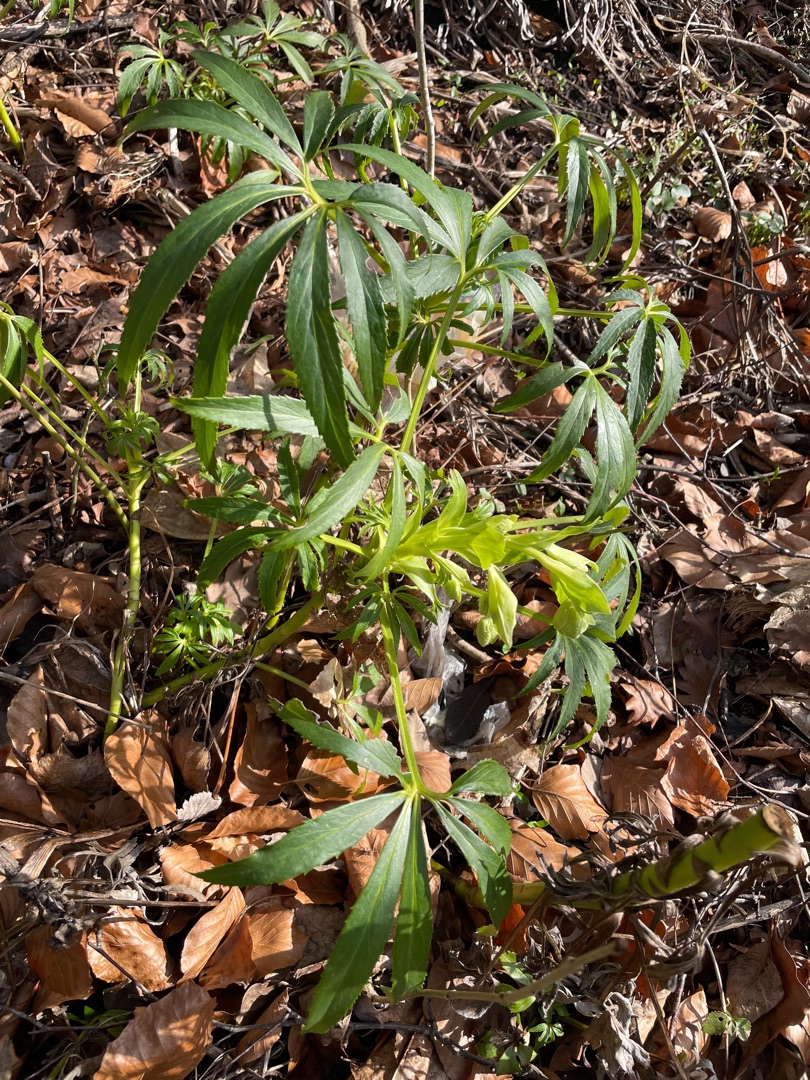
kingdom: Plantae
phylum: Tracheophyta
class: Magnoliopsida
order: Ranunculales
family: Ranunculaceae
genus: Helleborus
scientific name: Helleborus foetidus
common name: Stinkende julerose
